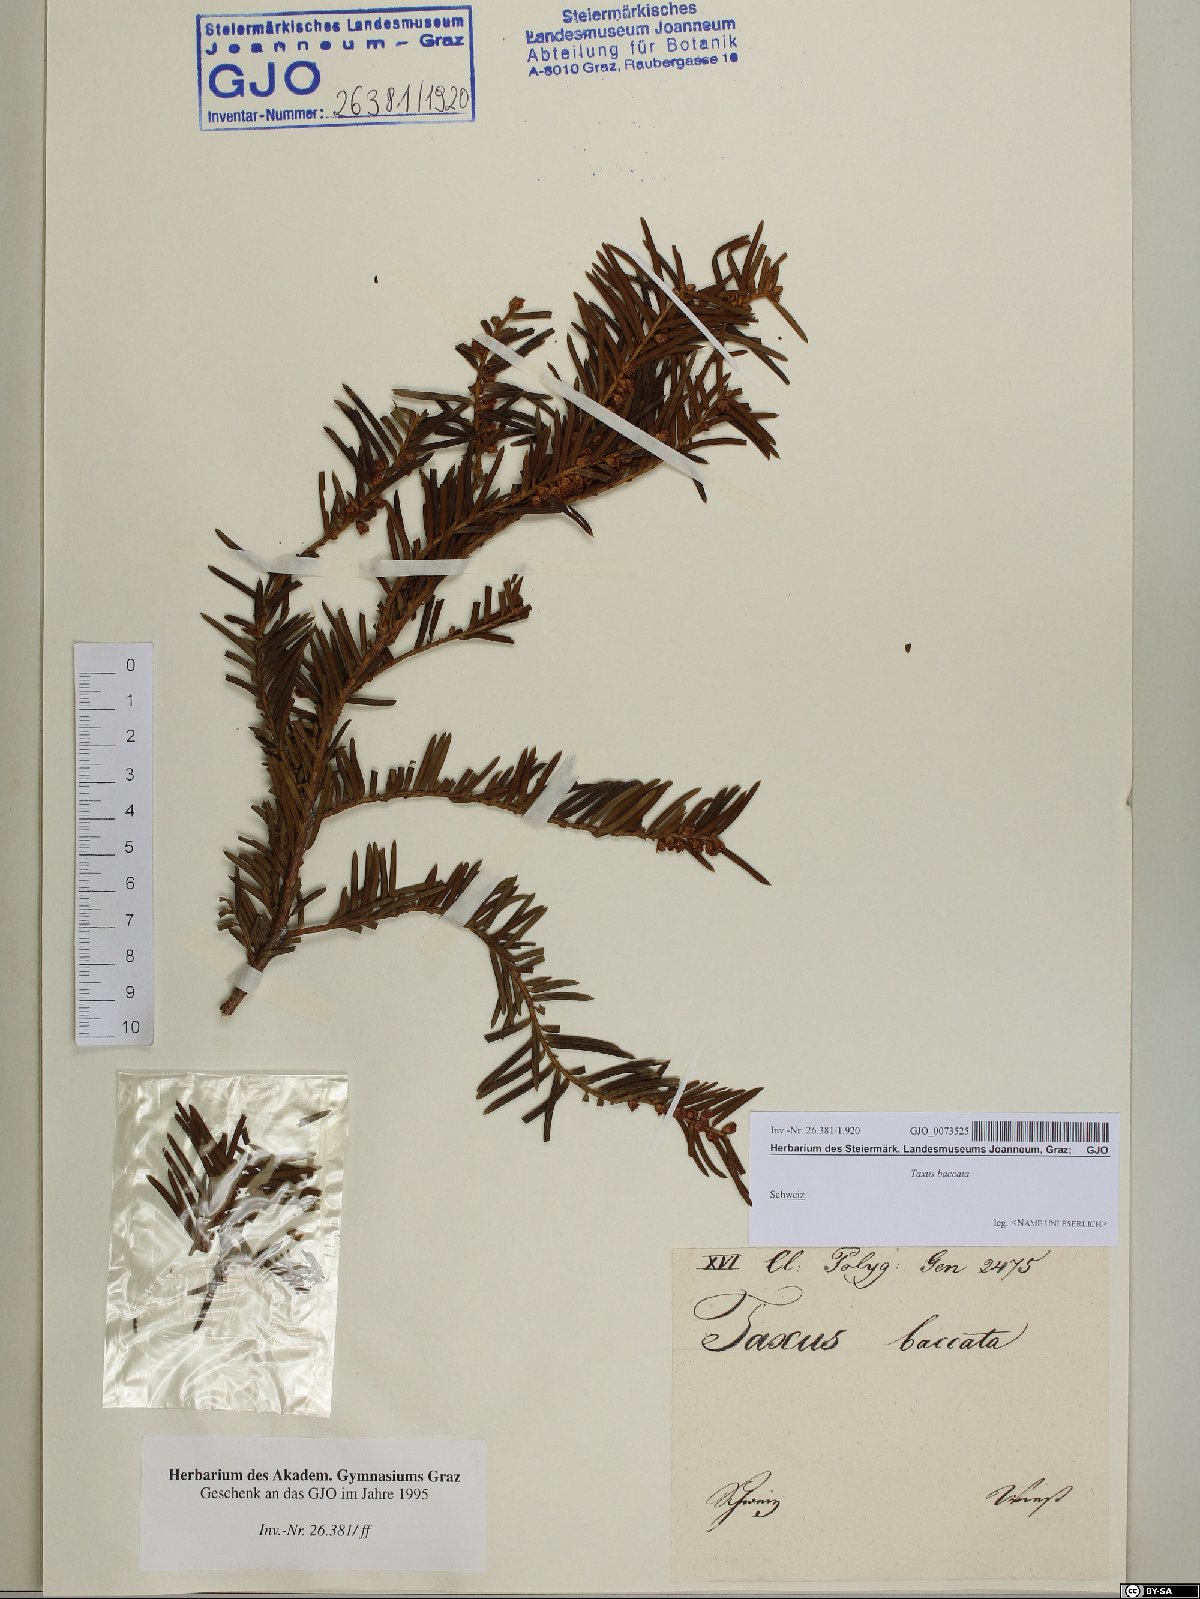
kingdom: Plantae
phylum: Tracheophyta
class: Pinopsida
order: Pinales
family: Taxaceae
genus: Taxus
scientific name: Taxus baccata
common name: Yew
